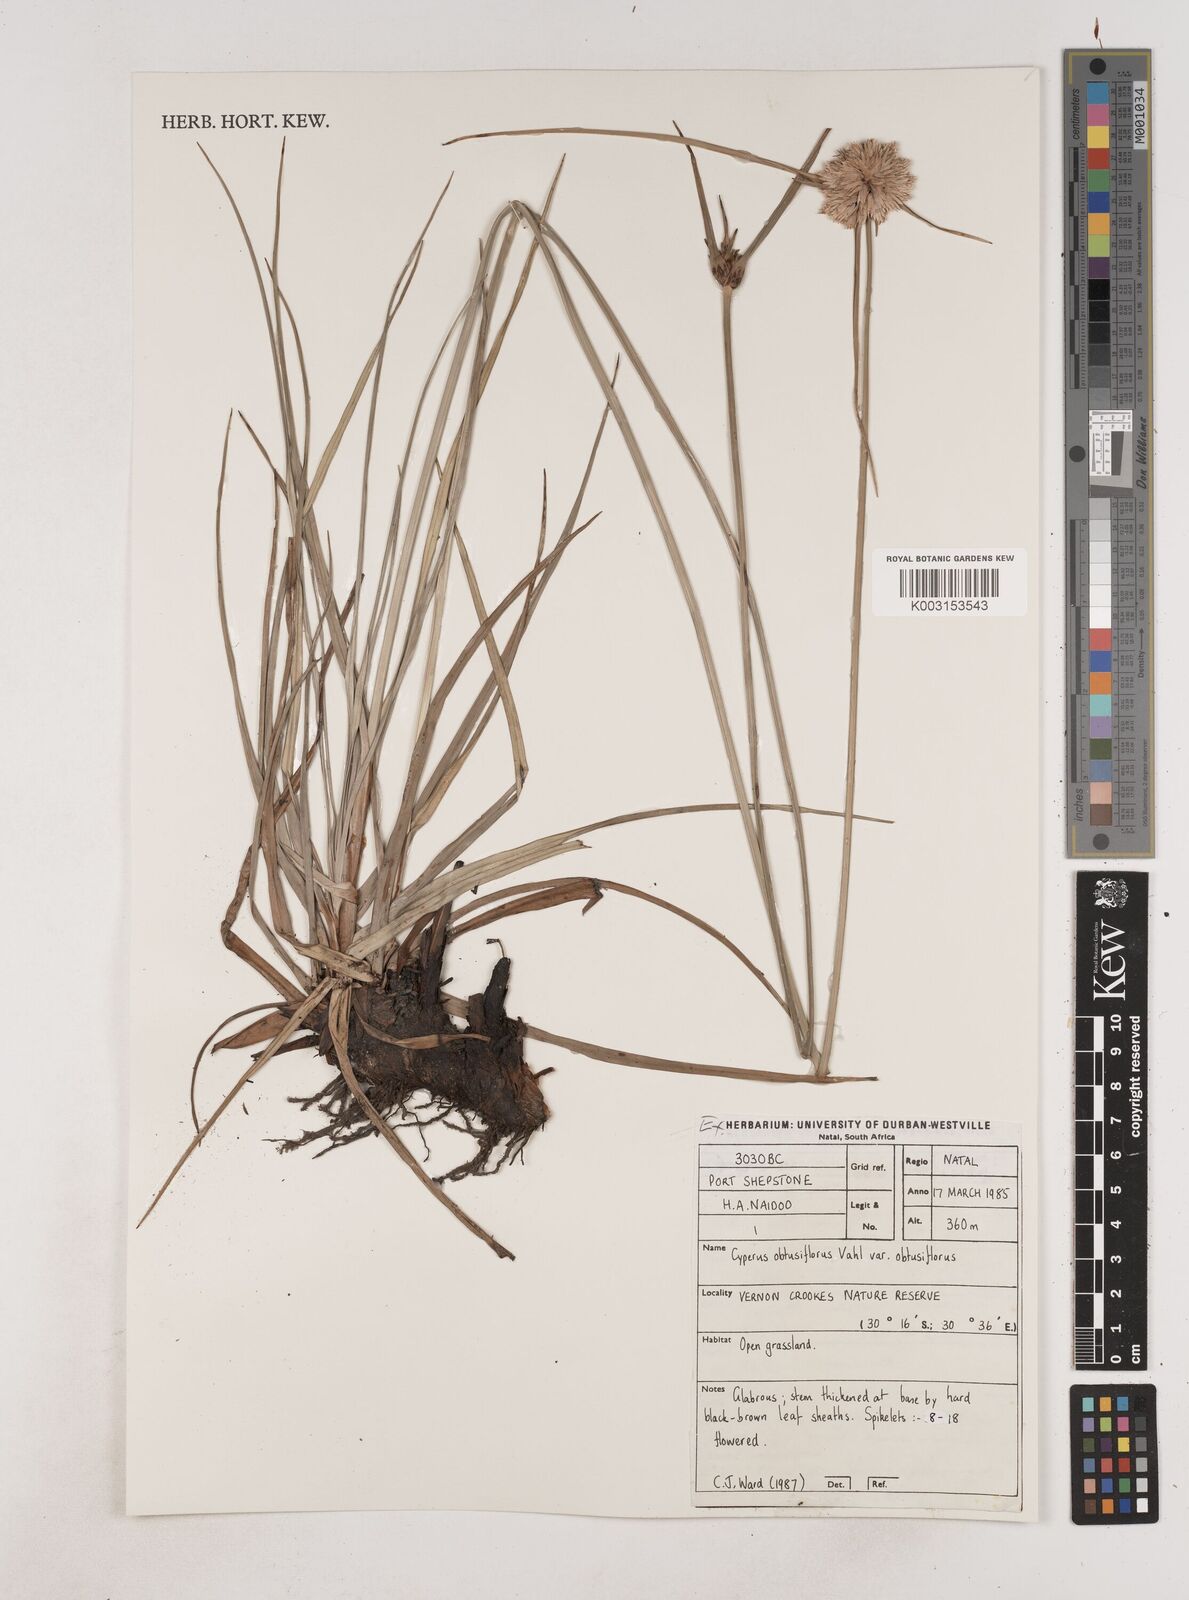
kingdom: Plantae
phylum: Tracheophyta
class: Liliopsida
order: Poales
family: Cyperaceae
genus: Cyperus
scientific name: Cyperus niveus
